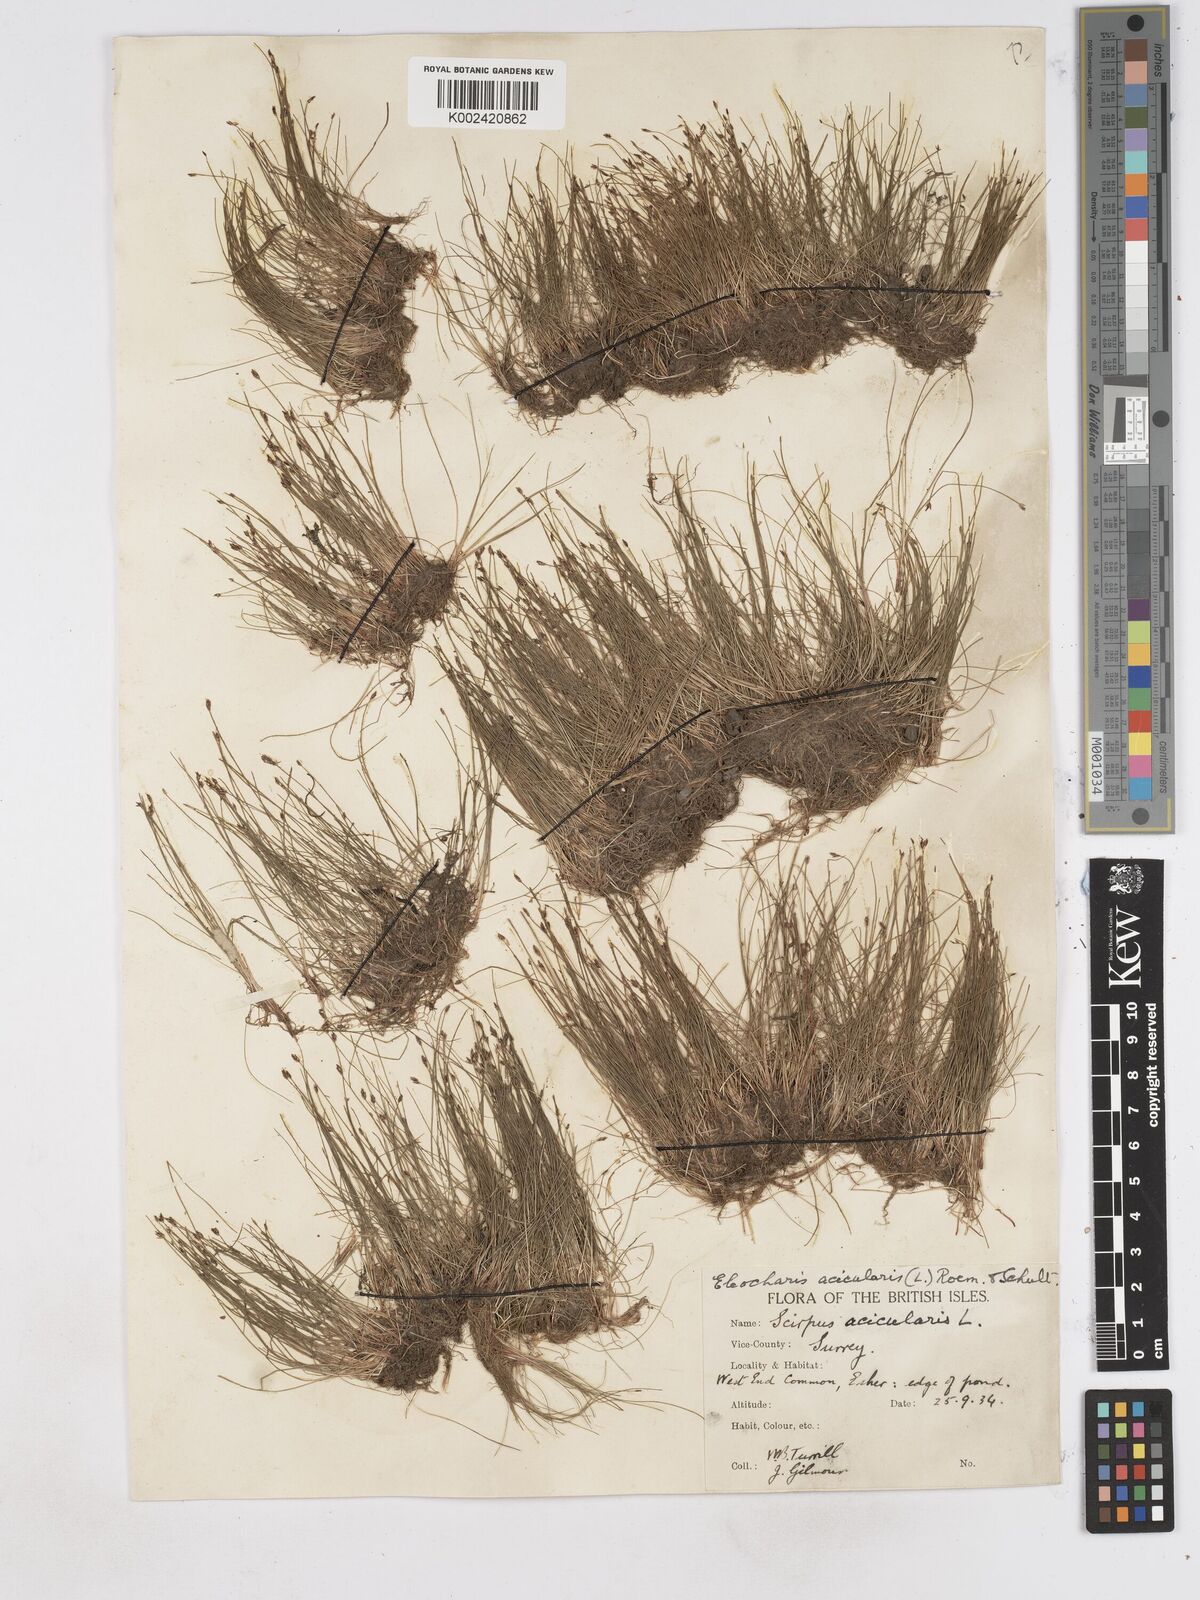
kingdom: Plantae
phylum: Tracheophyta
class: Liliopsida
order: Poales
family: Cyperaceae
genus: Eleocharis
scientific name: Eleocharis acicularis
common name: Needle spike-rush
